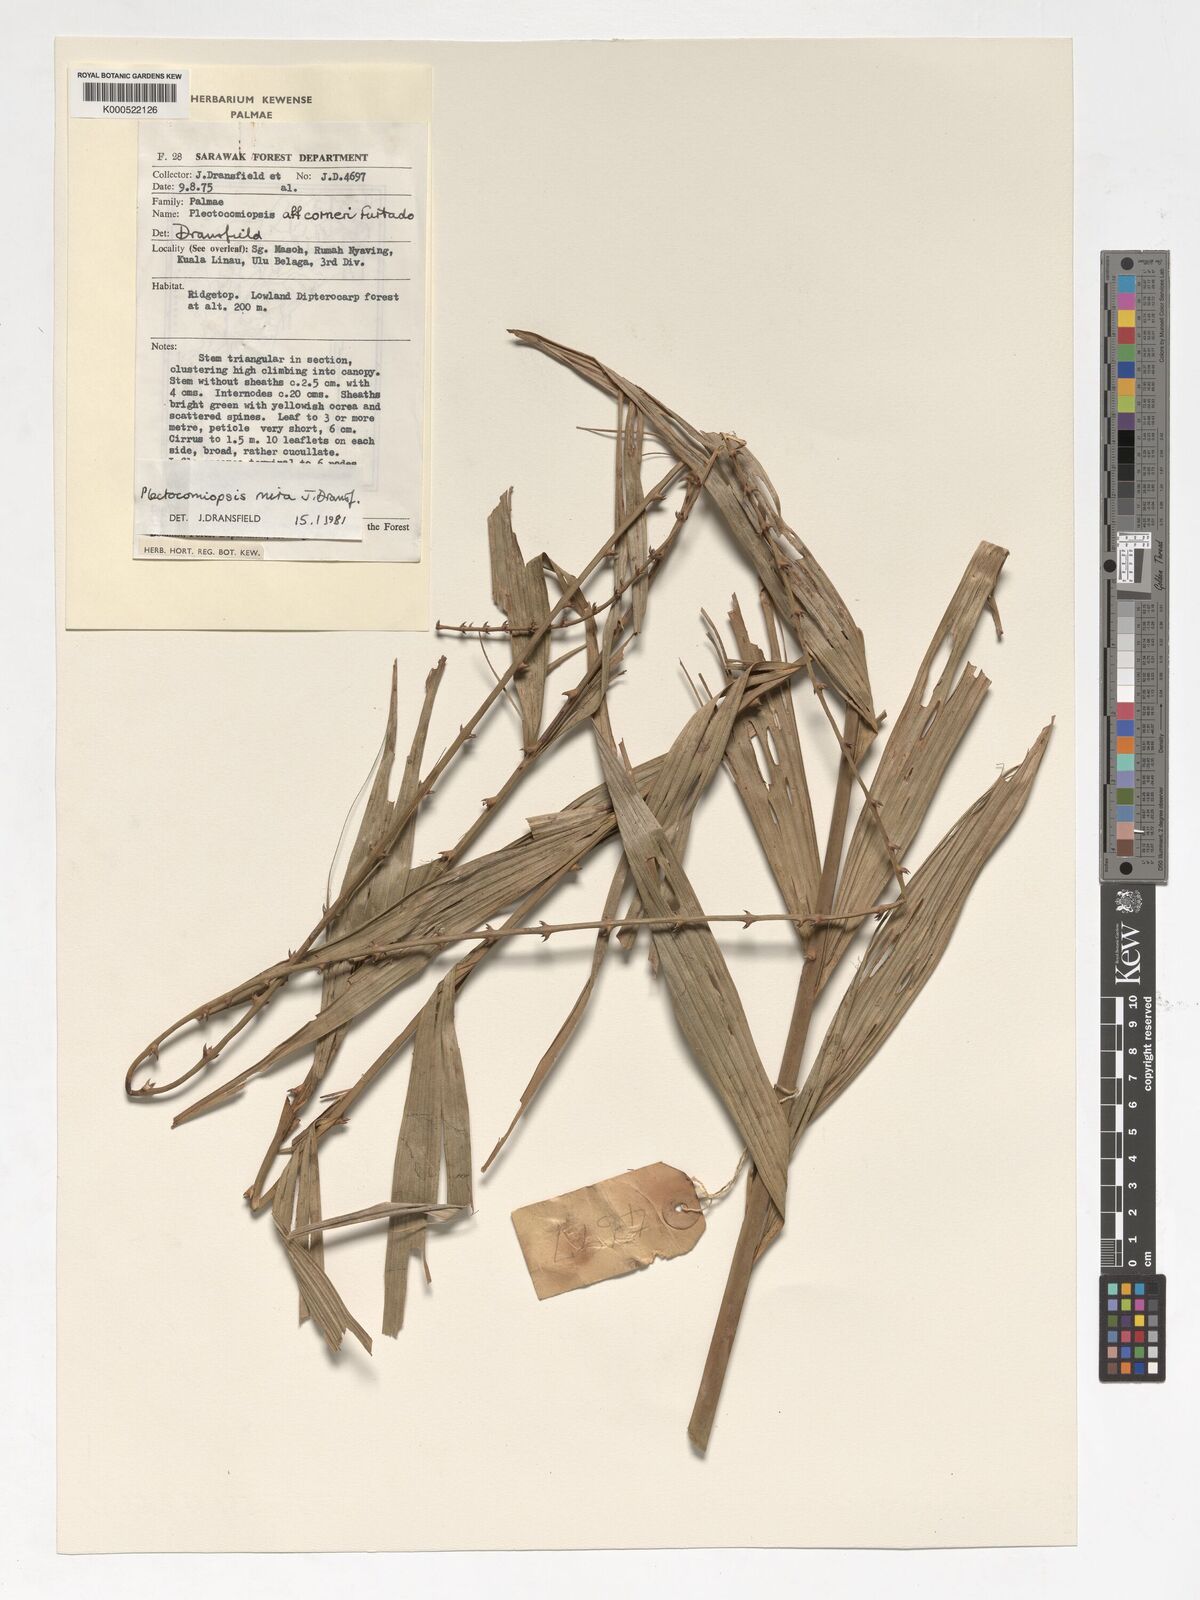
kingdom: Plantae
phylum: Tracheophyta
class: Liliopsida
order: Arecales
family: Arecaceae
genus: Plectocomiopsis
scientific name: Plectocomiopsis mira
